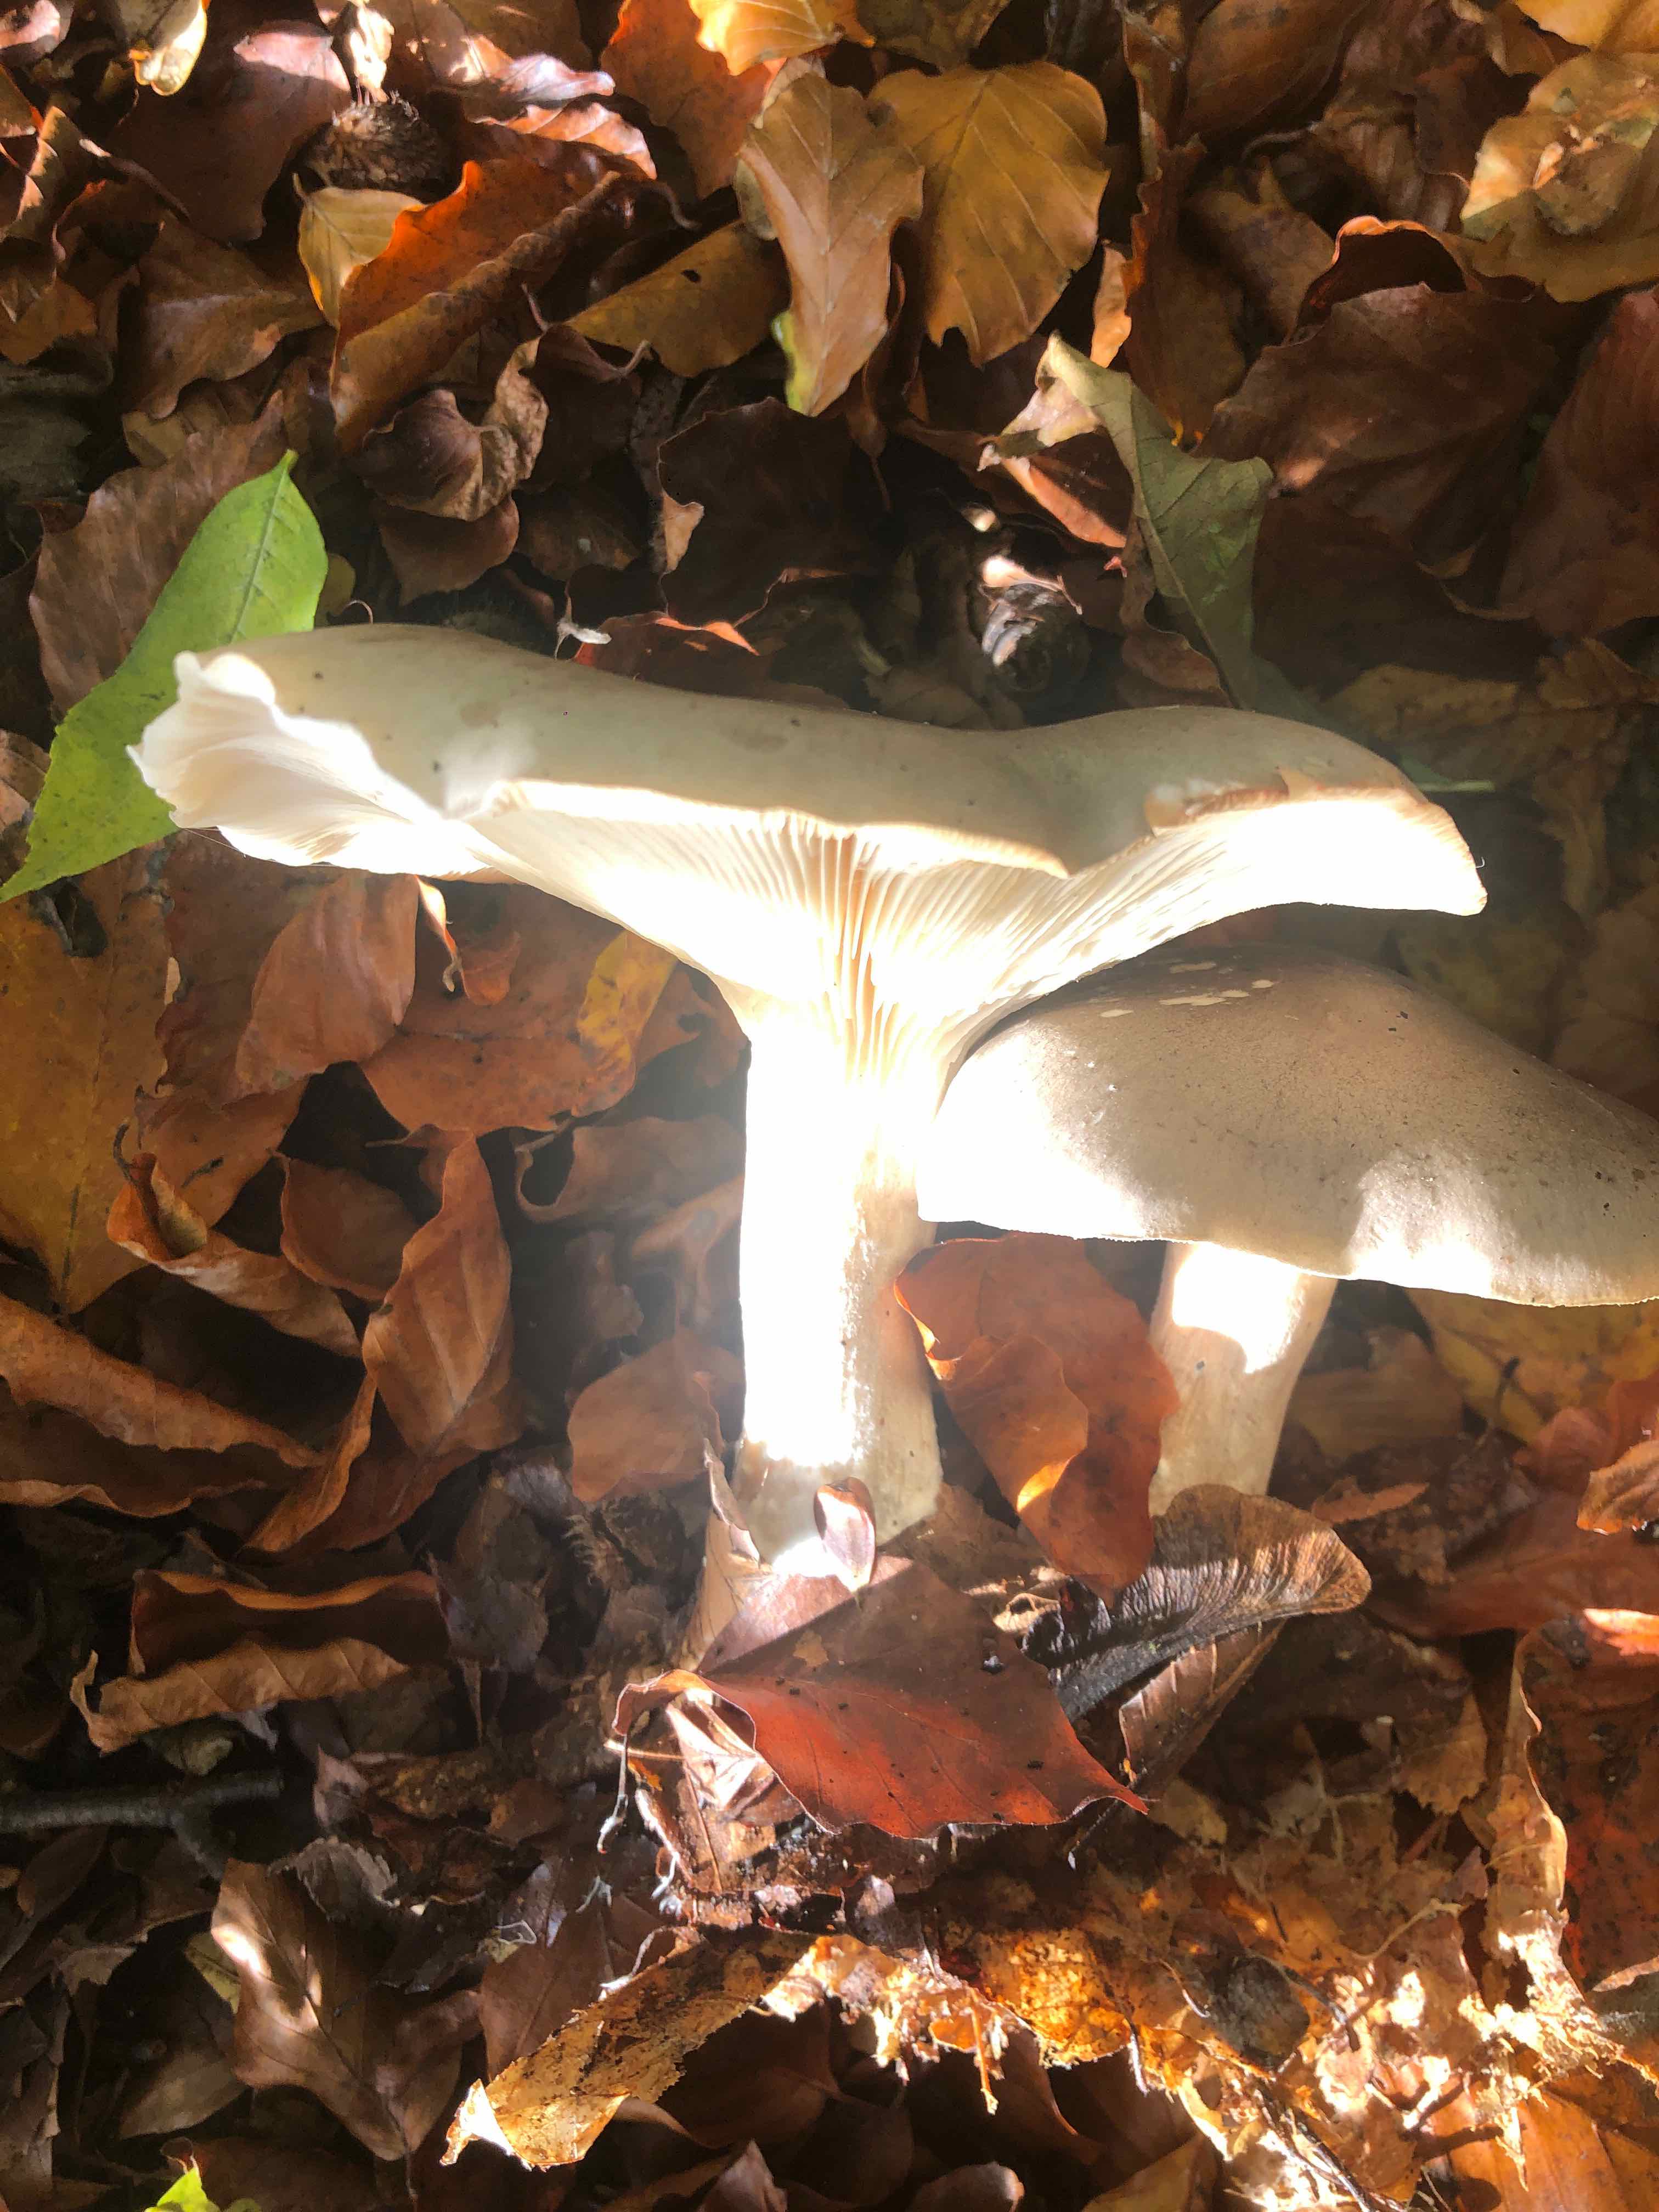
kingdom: Fungi
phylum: Basidiomycota
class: Agaricomycetes
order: Agaricales
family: Tricholomataceae
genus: Clitocybe
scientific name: Clitocybe nebularis
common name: tåge-tragthat
